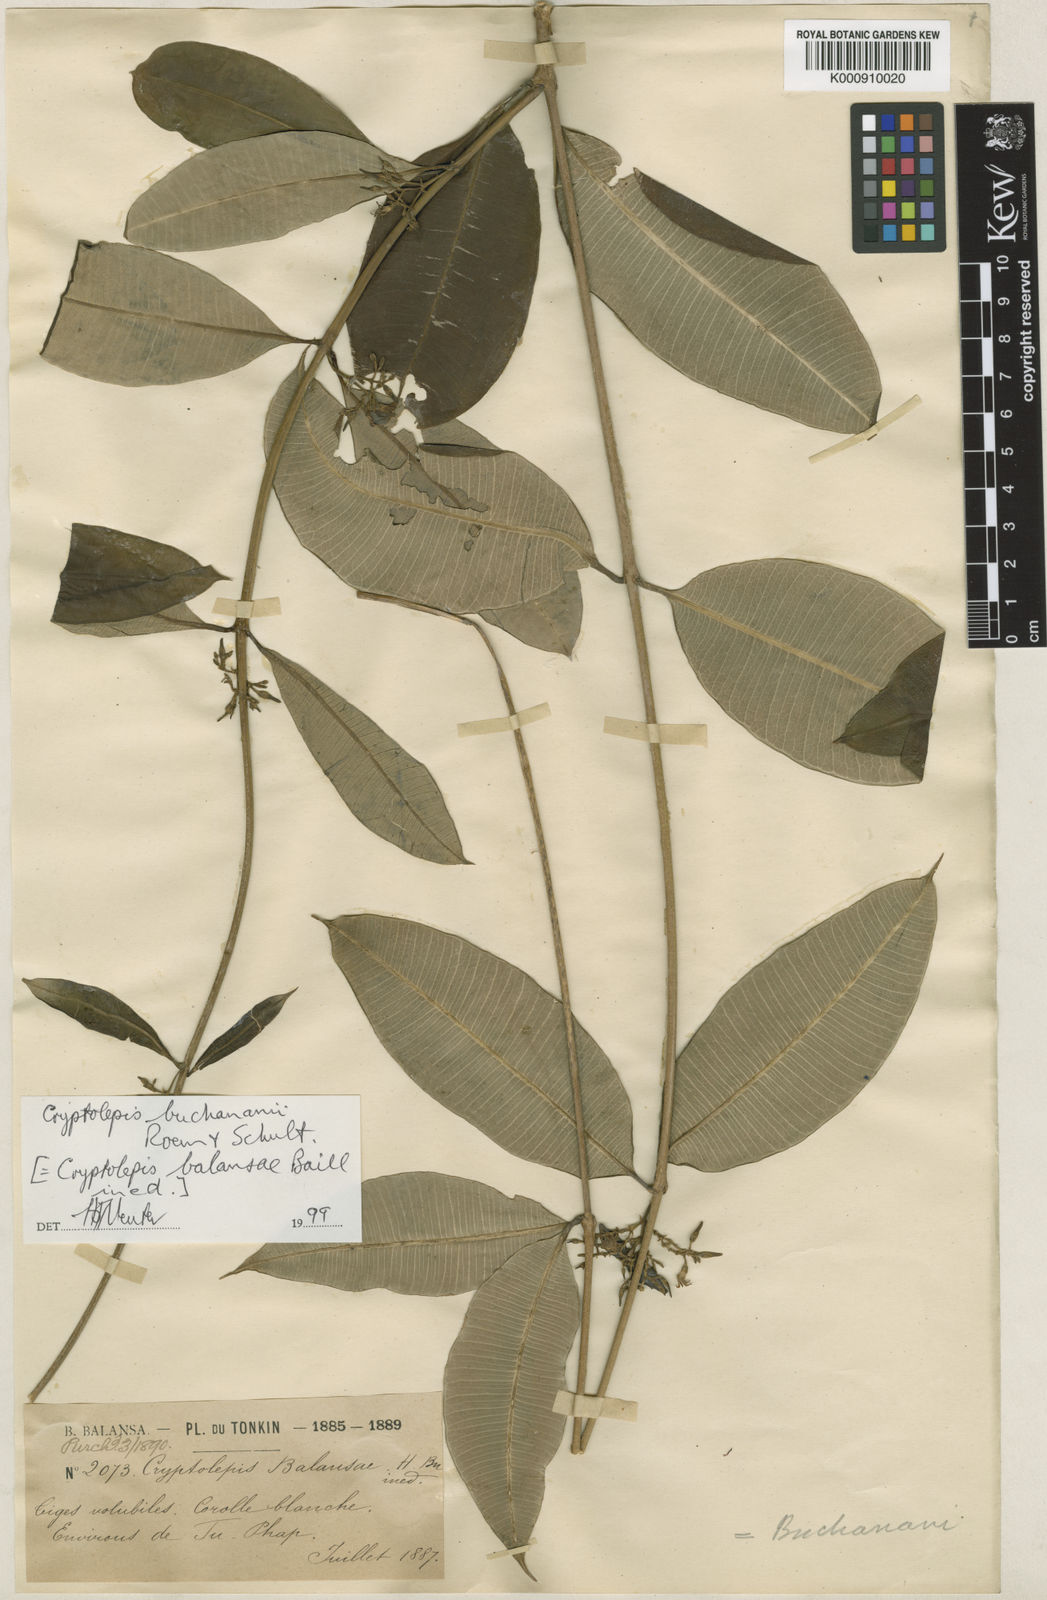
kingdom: Plantae
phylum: Tracheophyta
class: Magnoliopsida
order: Gentianales
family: Apocynaceae
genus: Cryptolepis
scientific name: Cryptolepis buchananii
